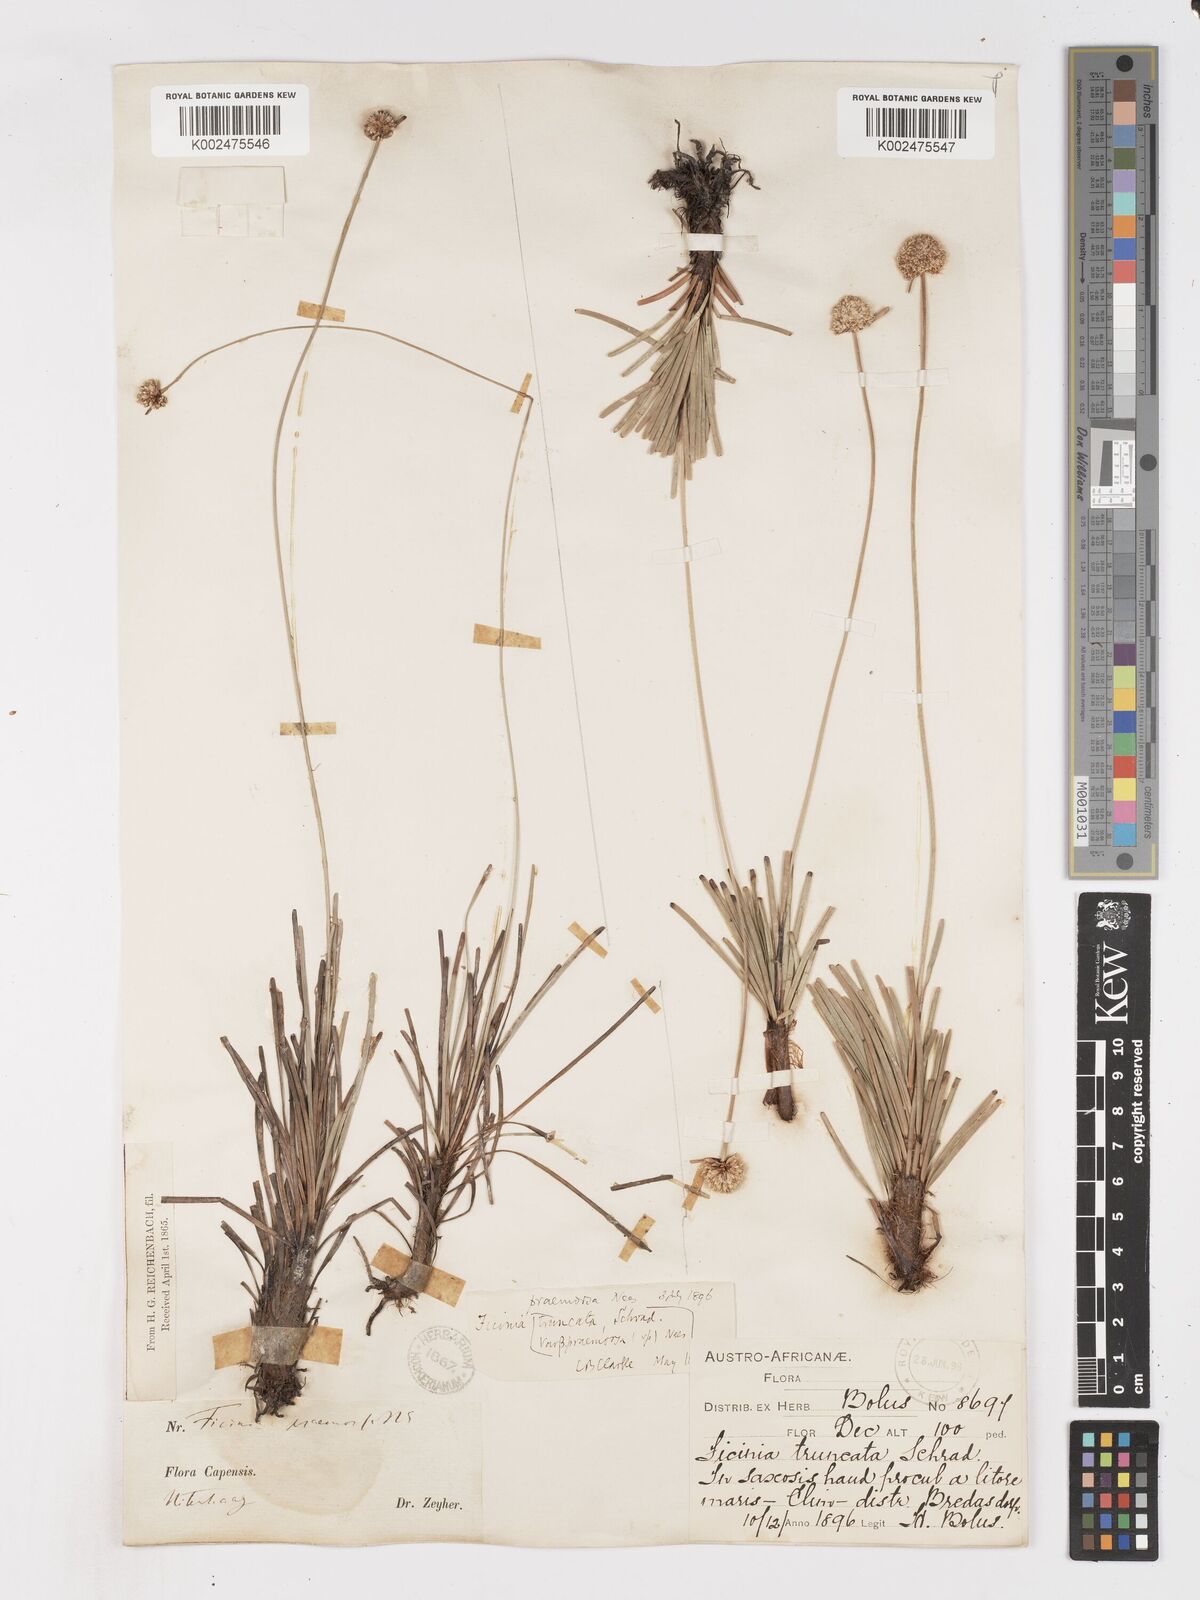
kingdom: Plantae
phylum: Tracheophyta
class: Liliopsida
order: Poales
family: Cyperaceae
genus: Ficinia
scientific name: Ficinia praemorsa
